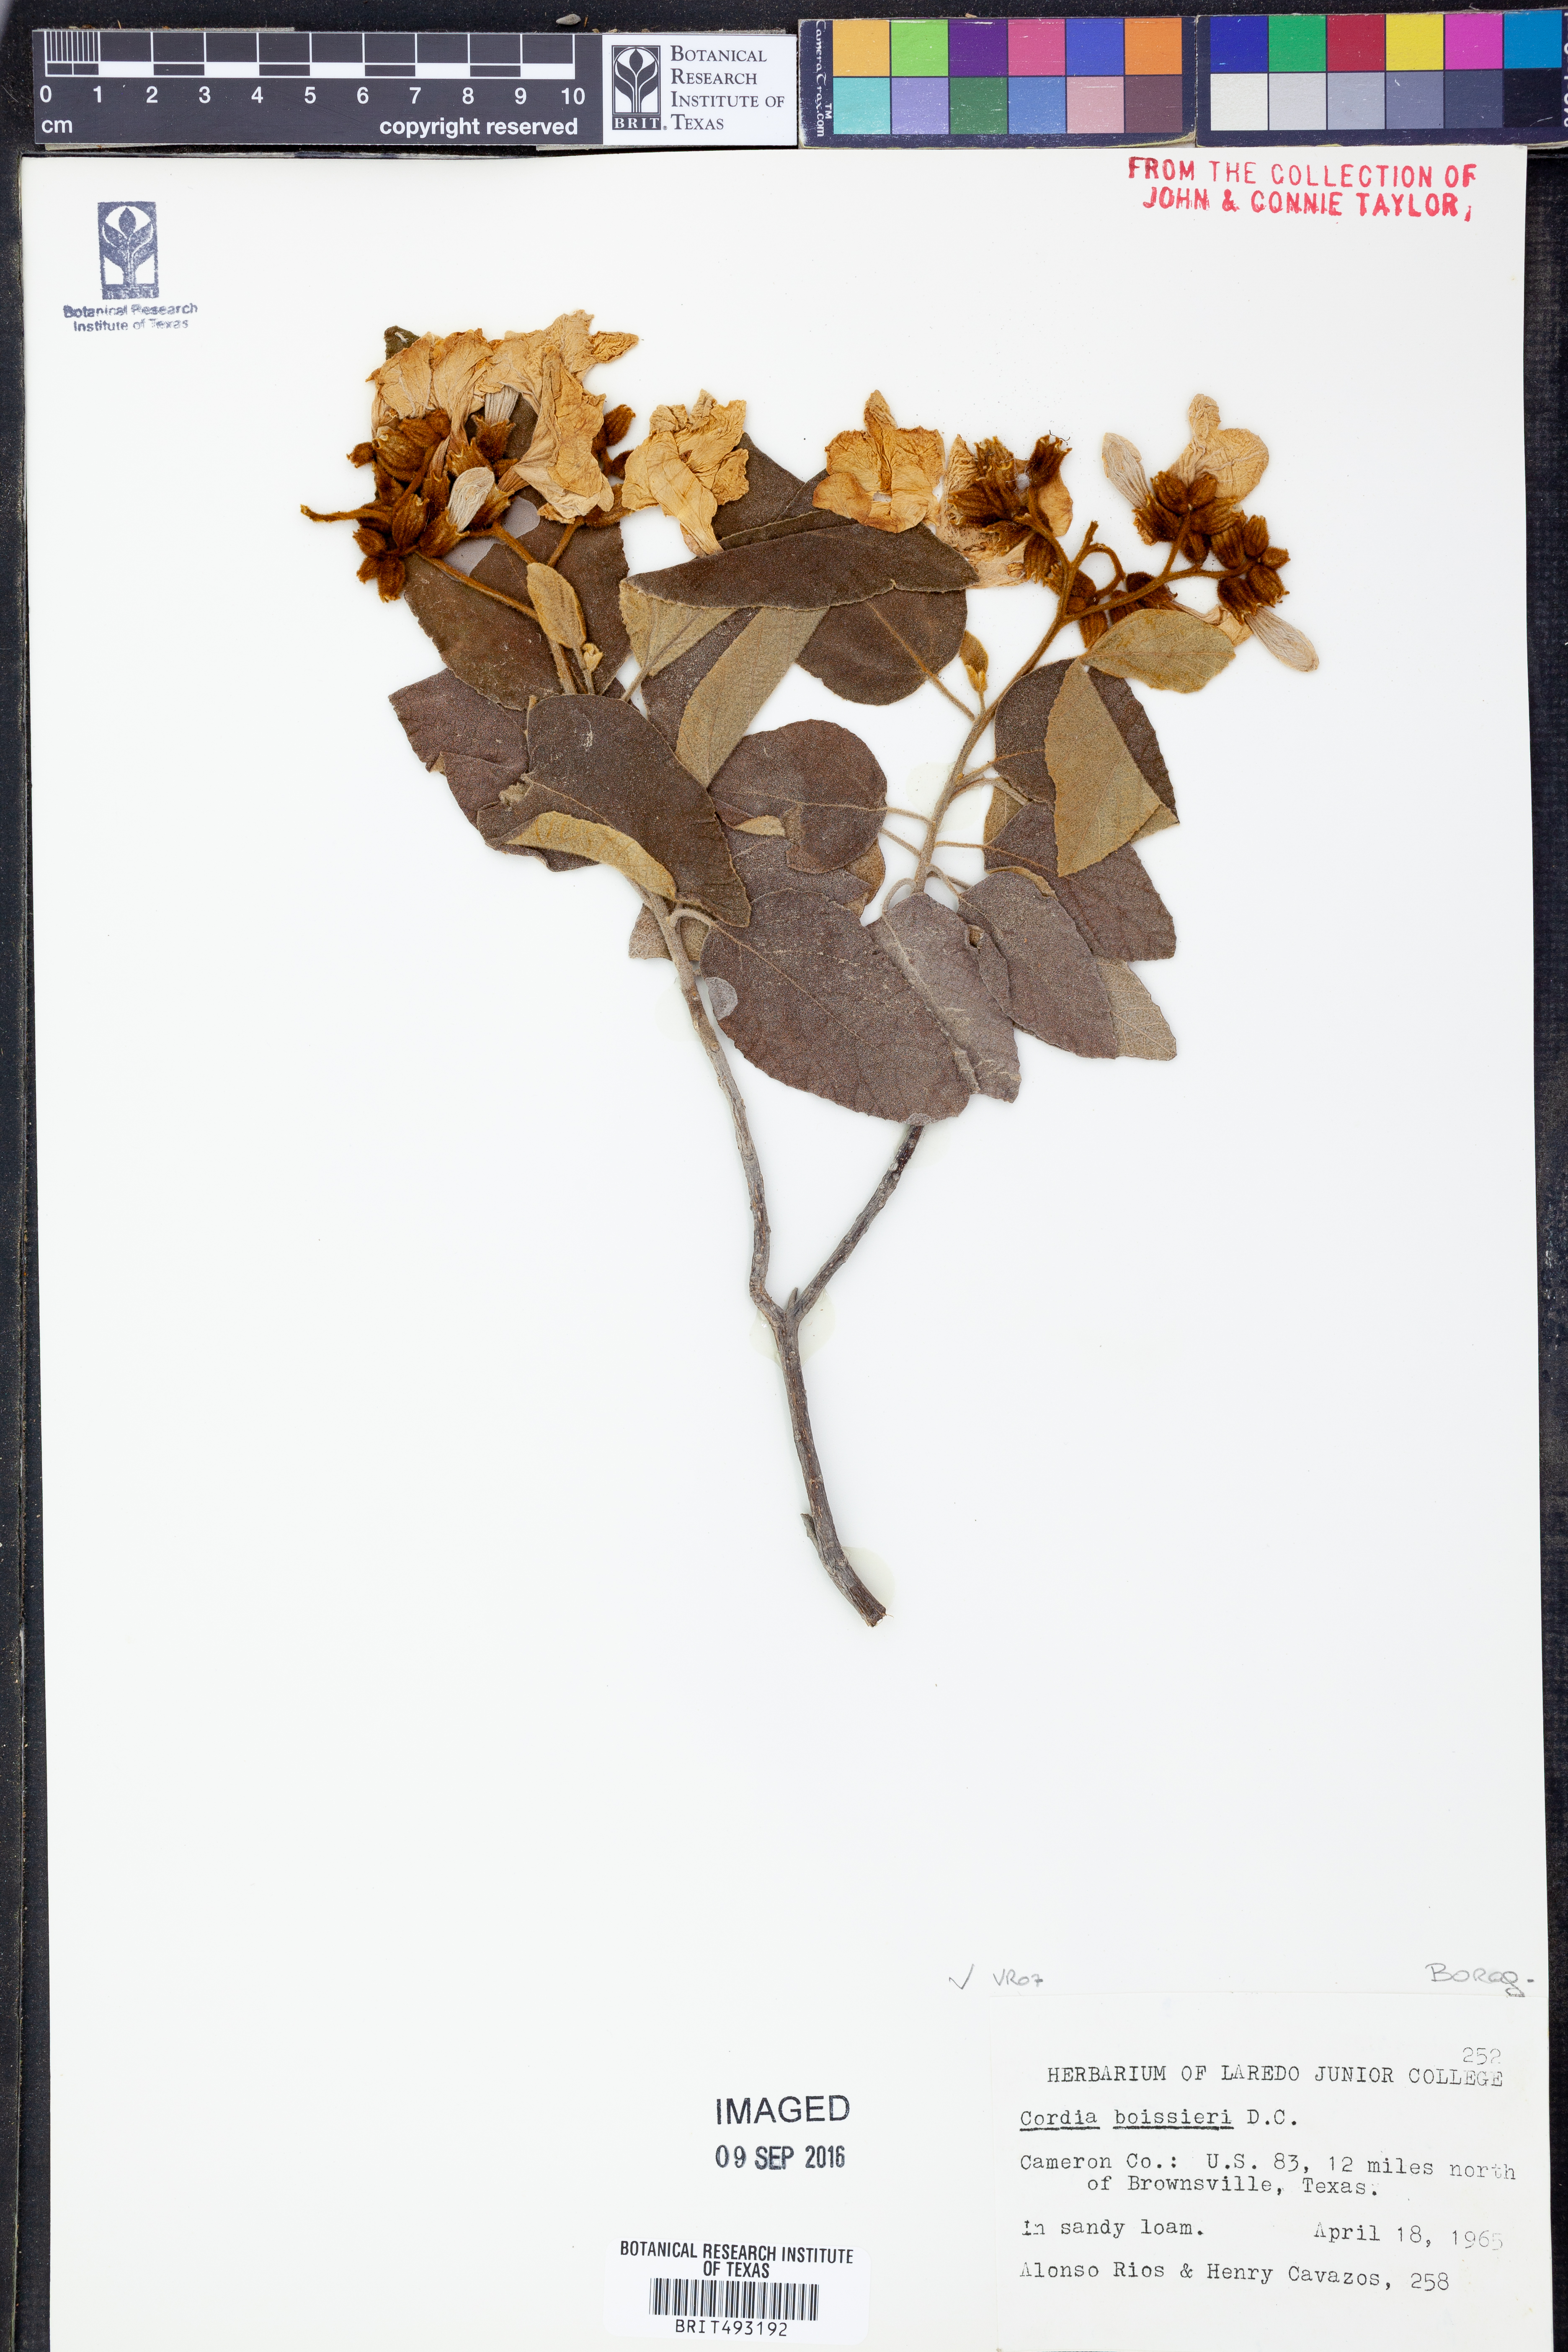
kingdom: Plantae
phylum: Tracheophyta
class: Magnoliopsida
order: Boraginales
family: Cordiaceae
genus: Cordia
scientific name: Cordia boissieri
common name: Mexican-olive
